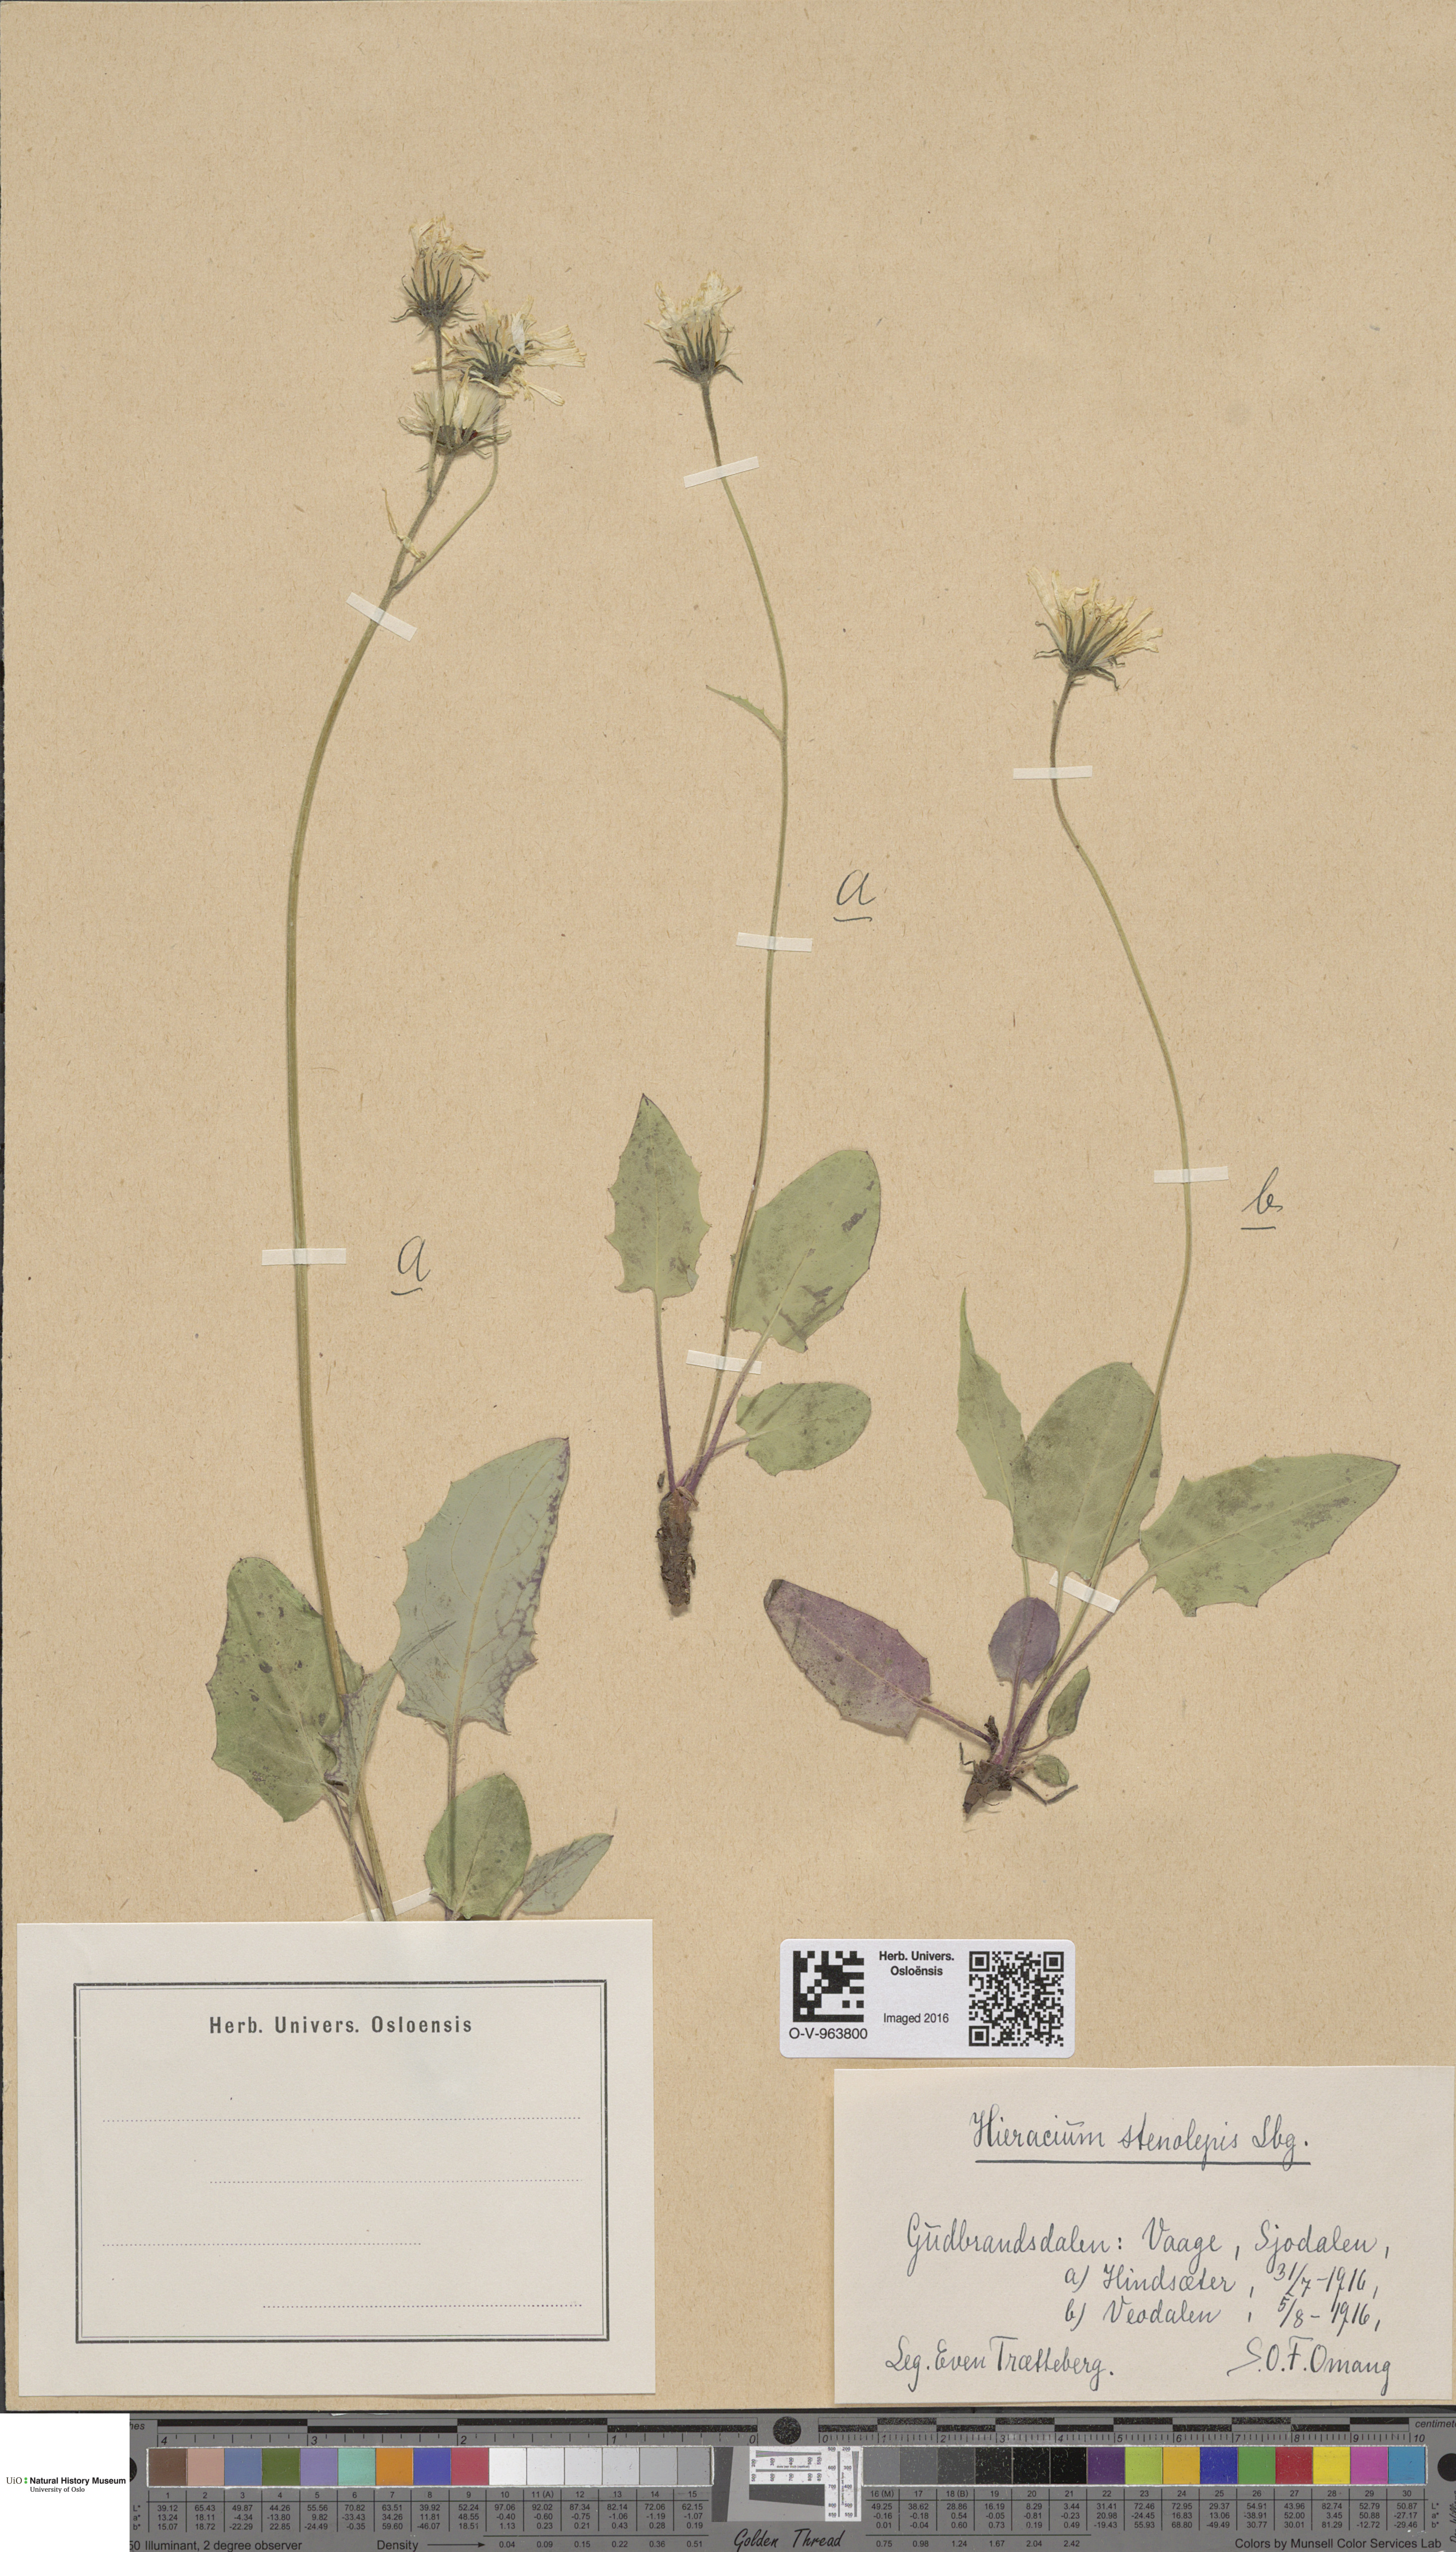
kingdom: Plantae
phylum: Tracheophyta
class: Magnoliopsida
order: Asterales
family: Asteraceae
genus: Hieracium
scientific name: Hieracium bifidum
